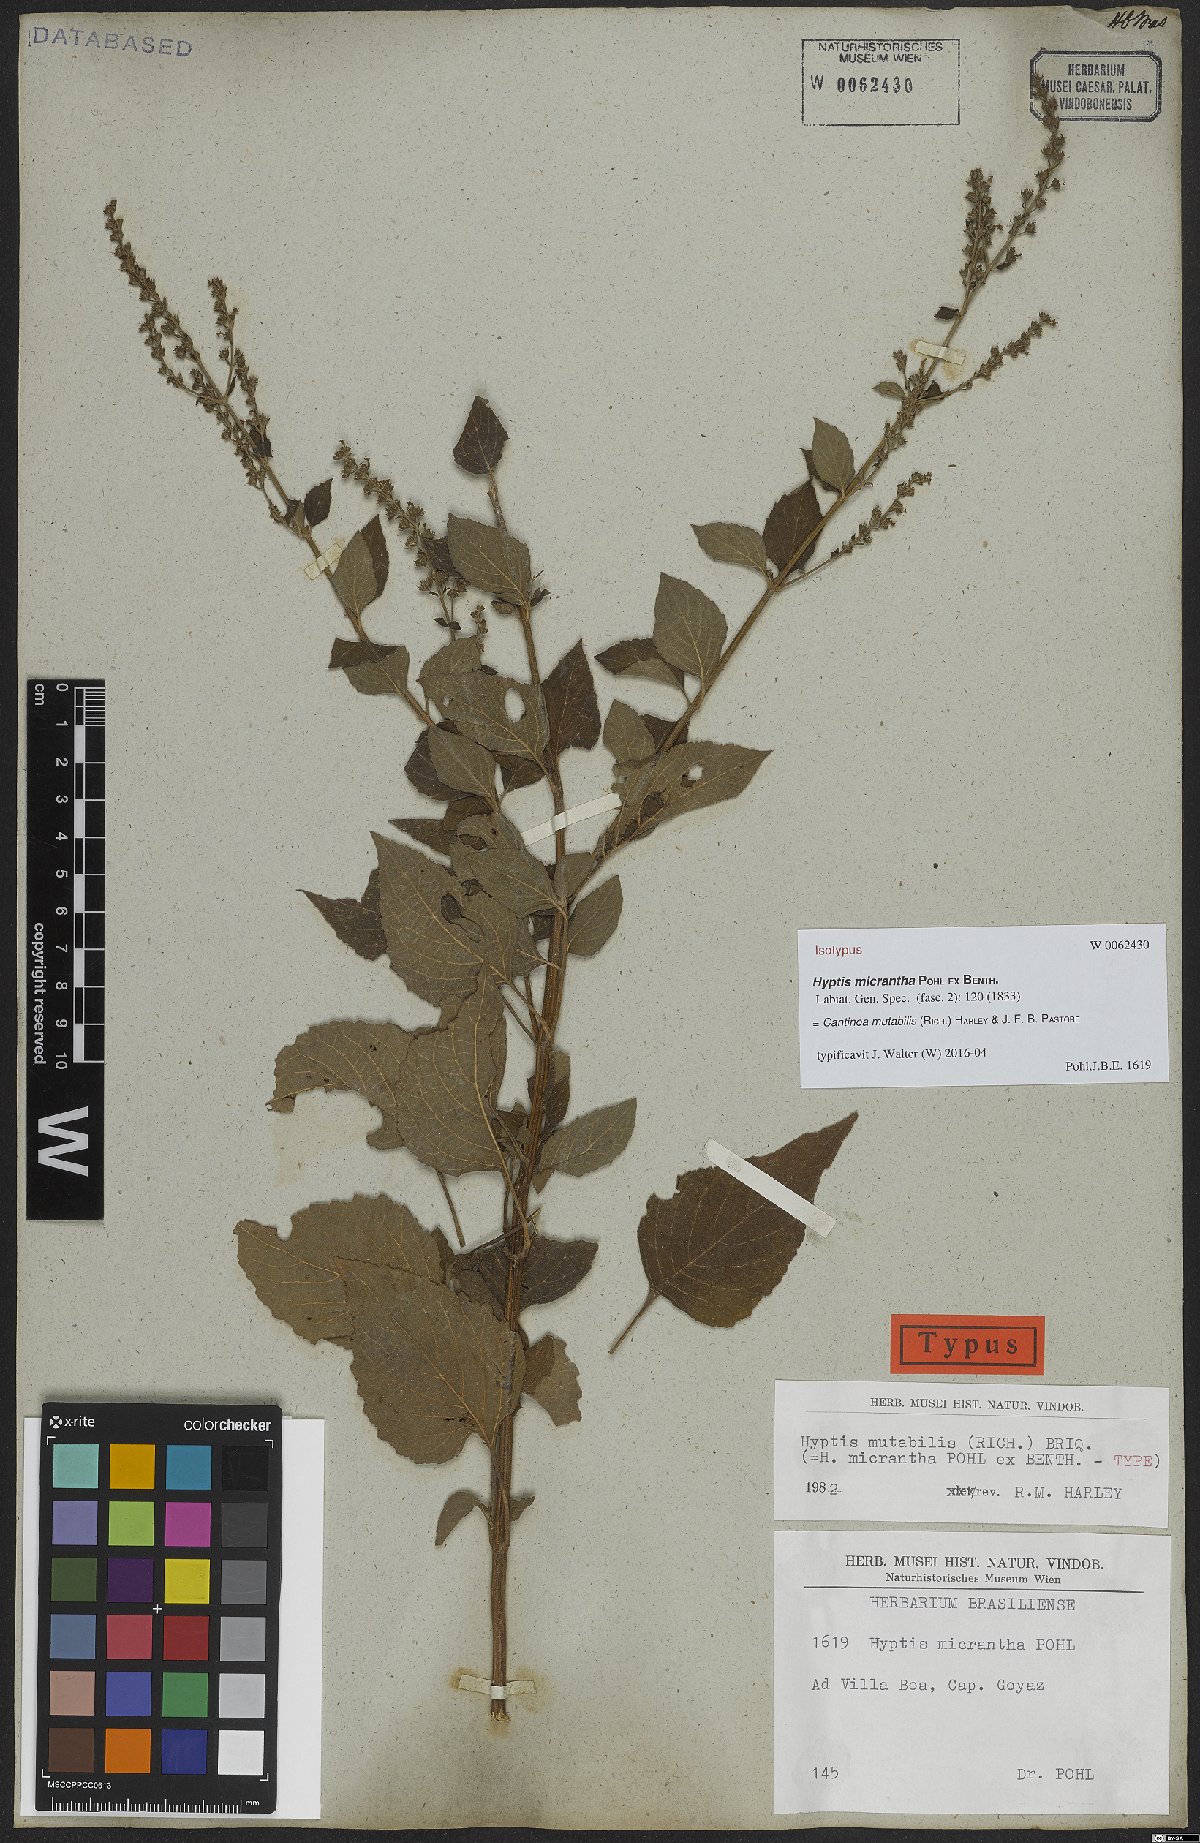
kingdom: Plantae
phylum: Tracheophyta
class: Magnoliopsida
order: Lamiales
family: Lamiaceae
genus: Cantinoa
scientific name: Cantinoa mutabilis
